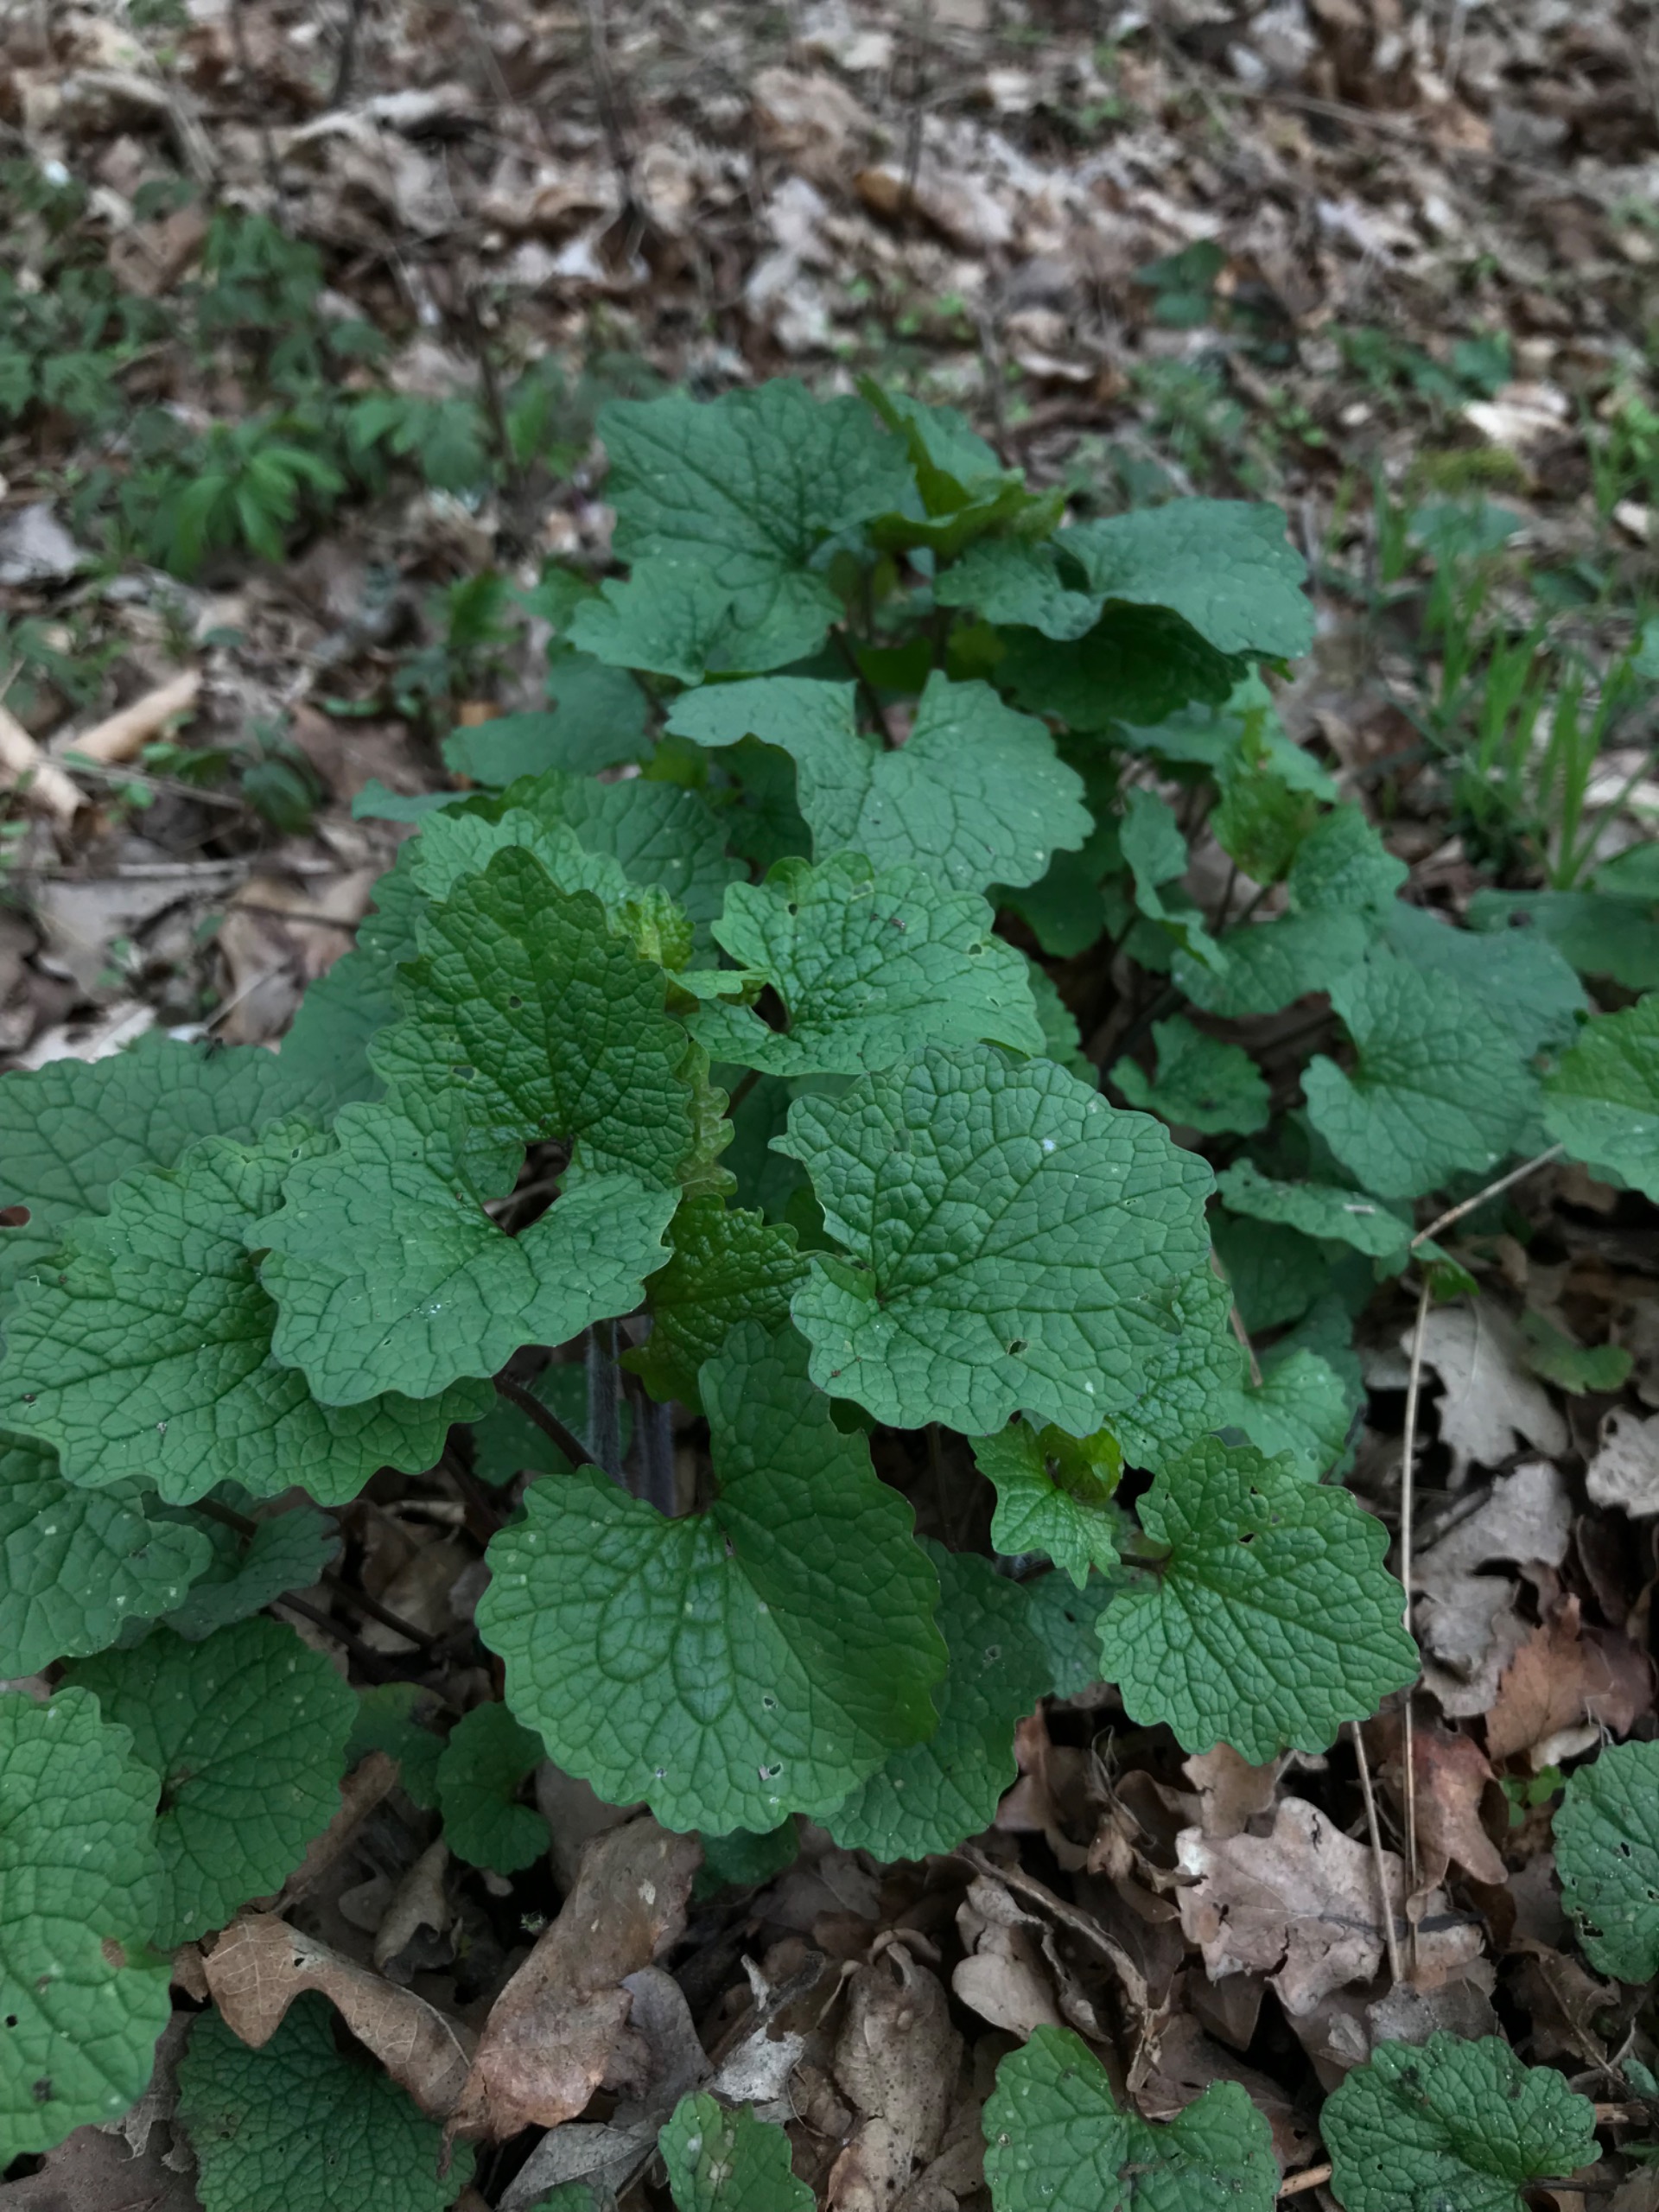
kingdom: Plantae
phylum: Tracheophyta
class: Magnoliopsida
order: Brassicales
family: Brassicaceae
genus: Alliaria
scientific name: Alliaria petiolata
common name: Løgkarse
